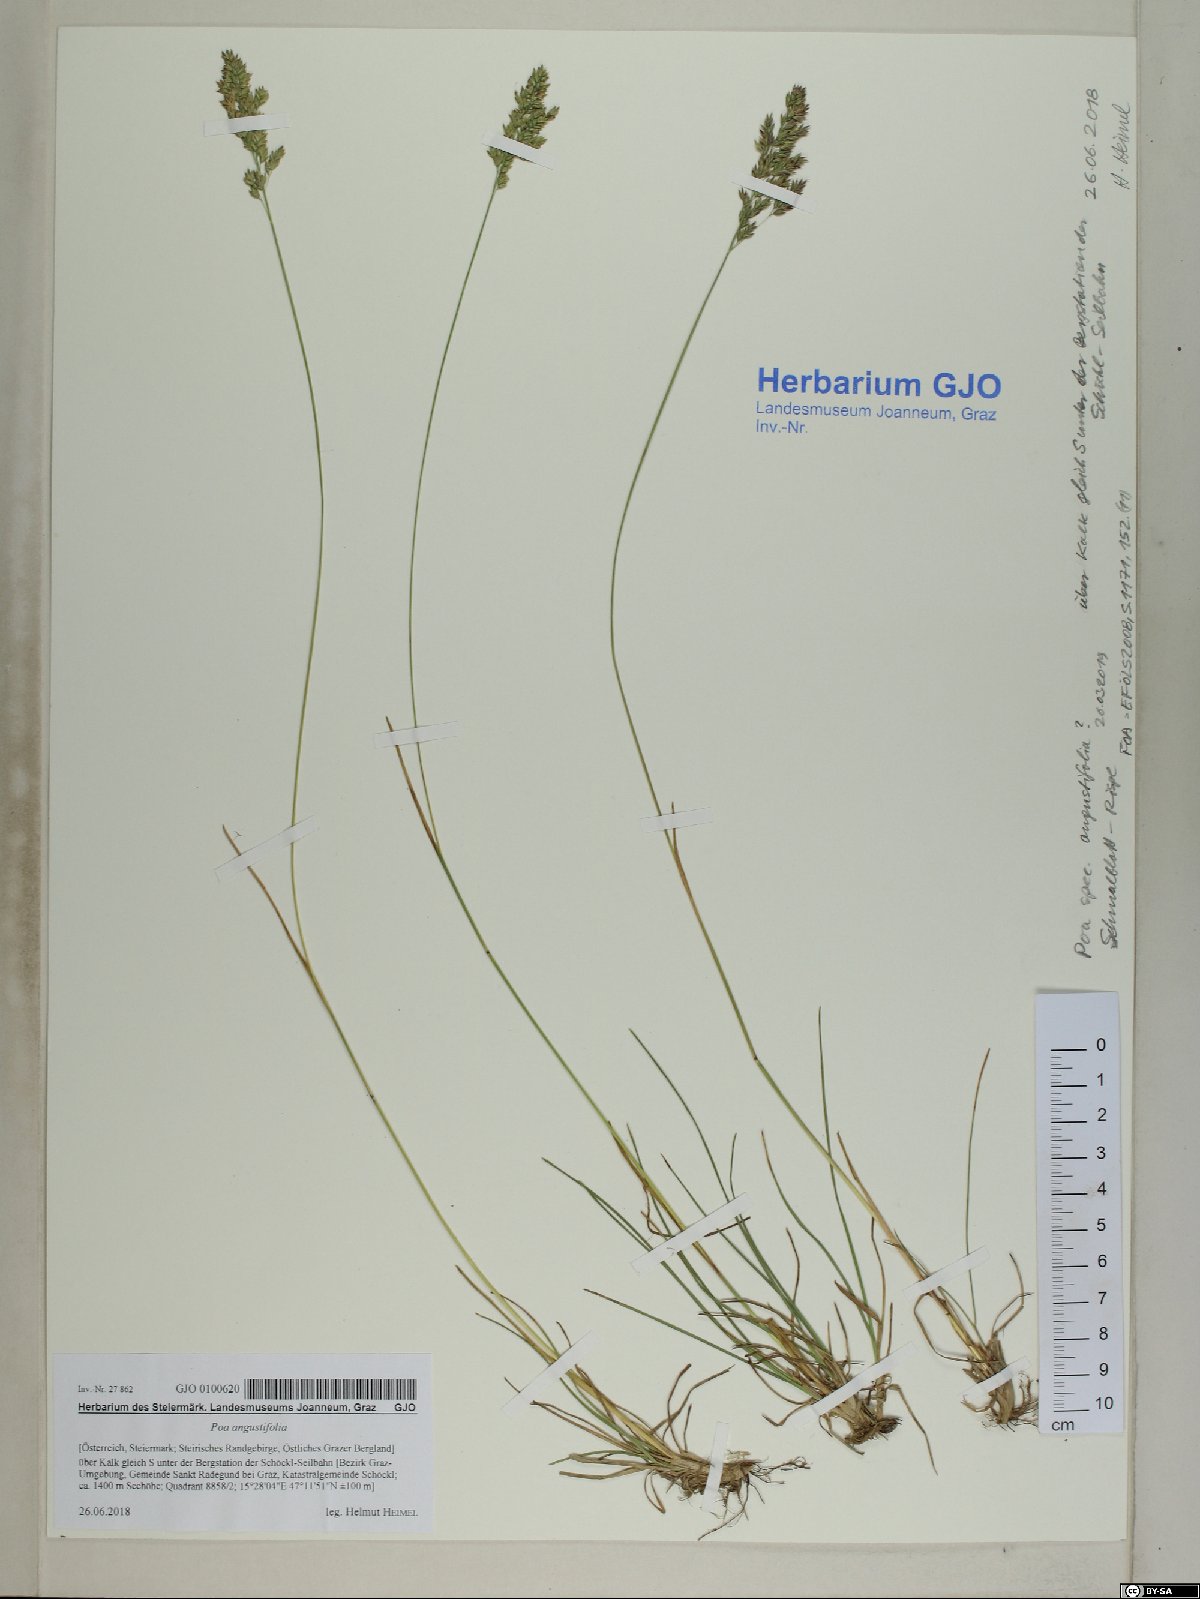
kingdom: Plantae
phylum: Tracheophyta
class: Liliopsida
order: Poales
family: Poaceae
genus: Poa
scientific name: Poa angustifolia
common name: Narrow-leaved meadow-grass
